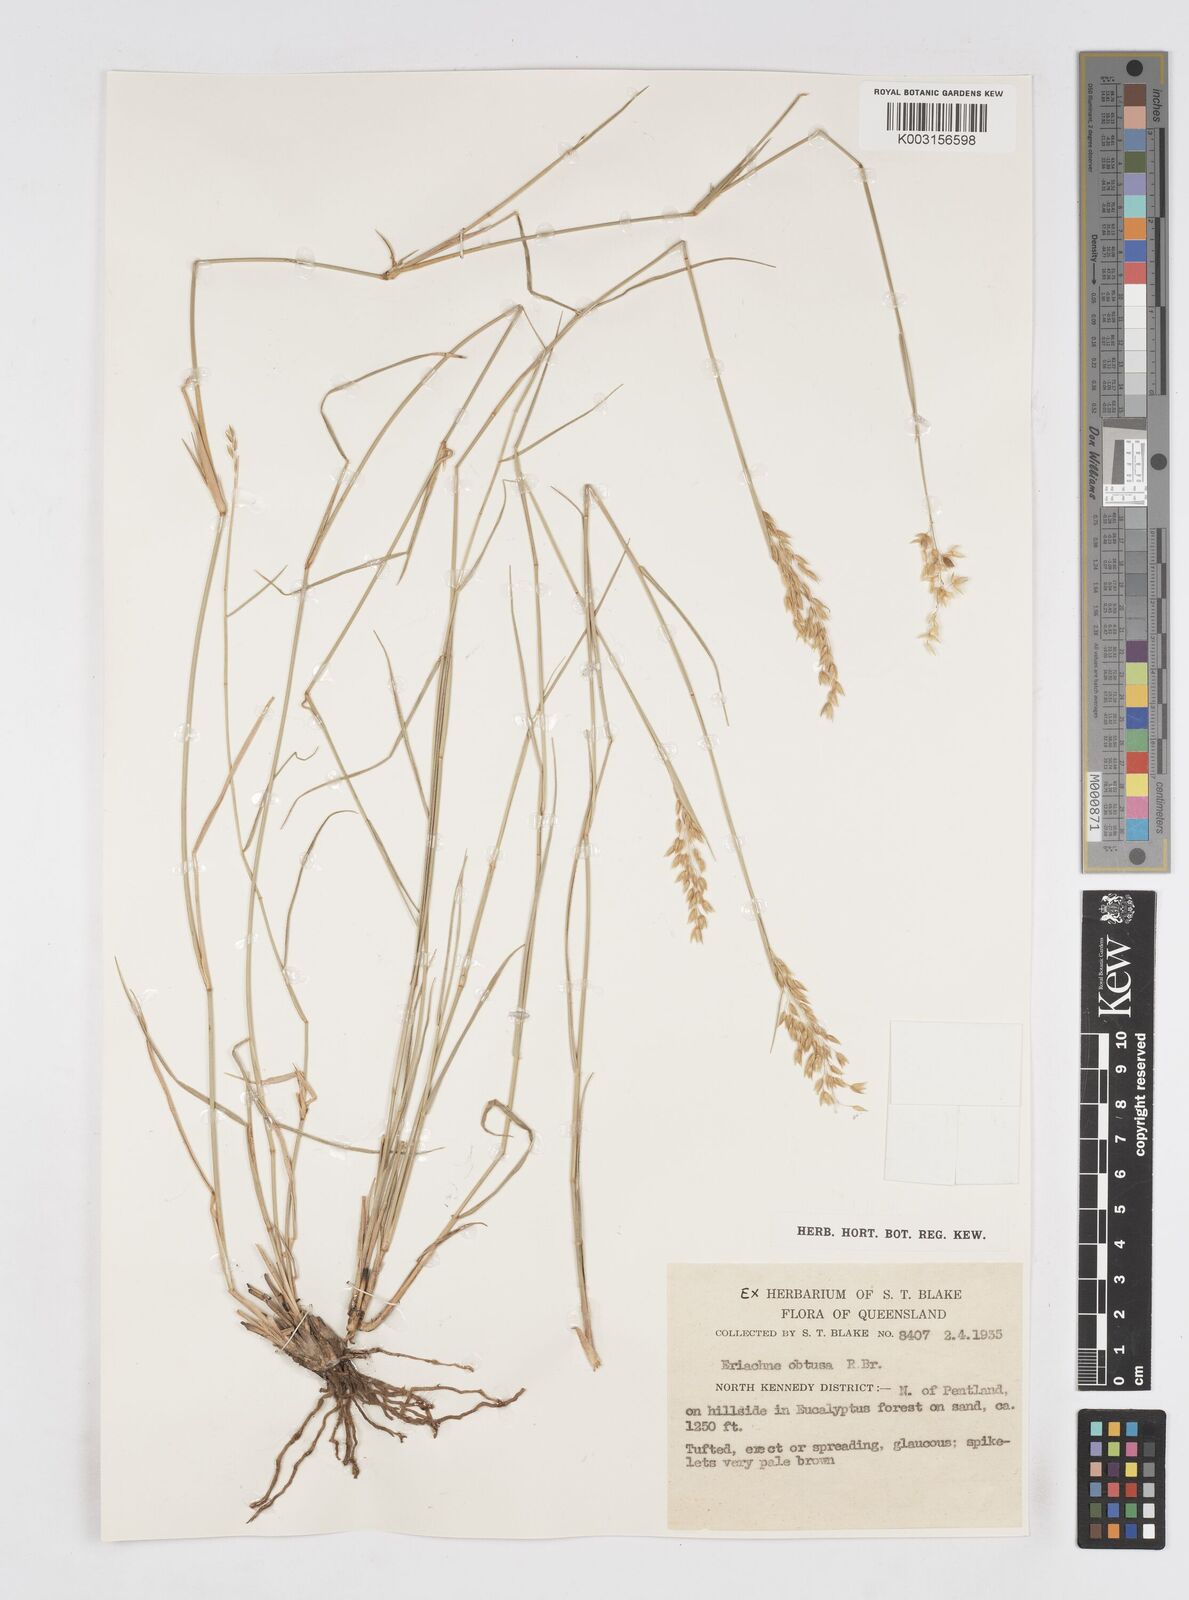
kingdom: Plantae
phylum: Tracheophyta
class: Liliopsida
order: Poales
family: Poaceae
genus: Eriachne
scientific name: Eriachne obtusa
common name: Northern wanderrie grass
